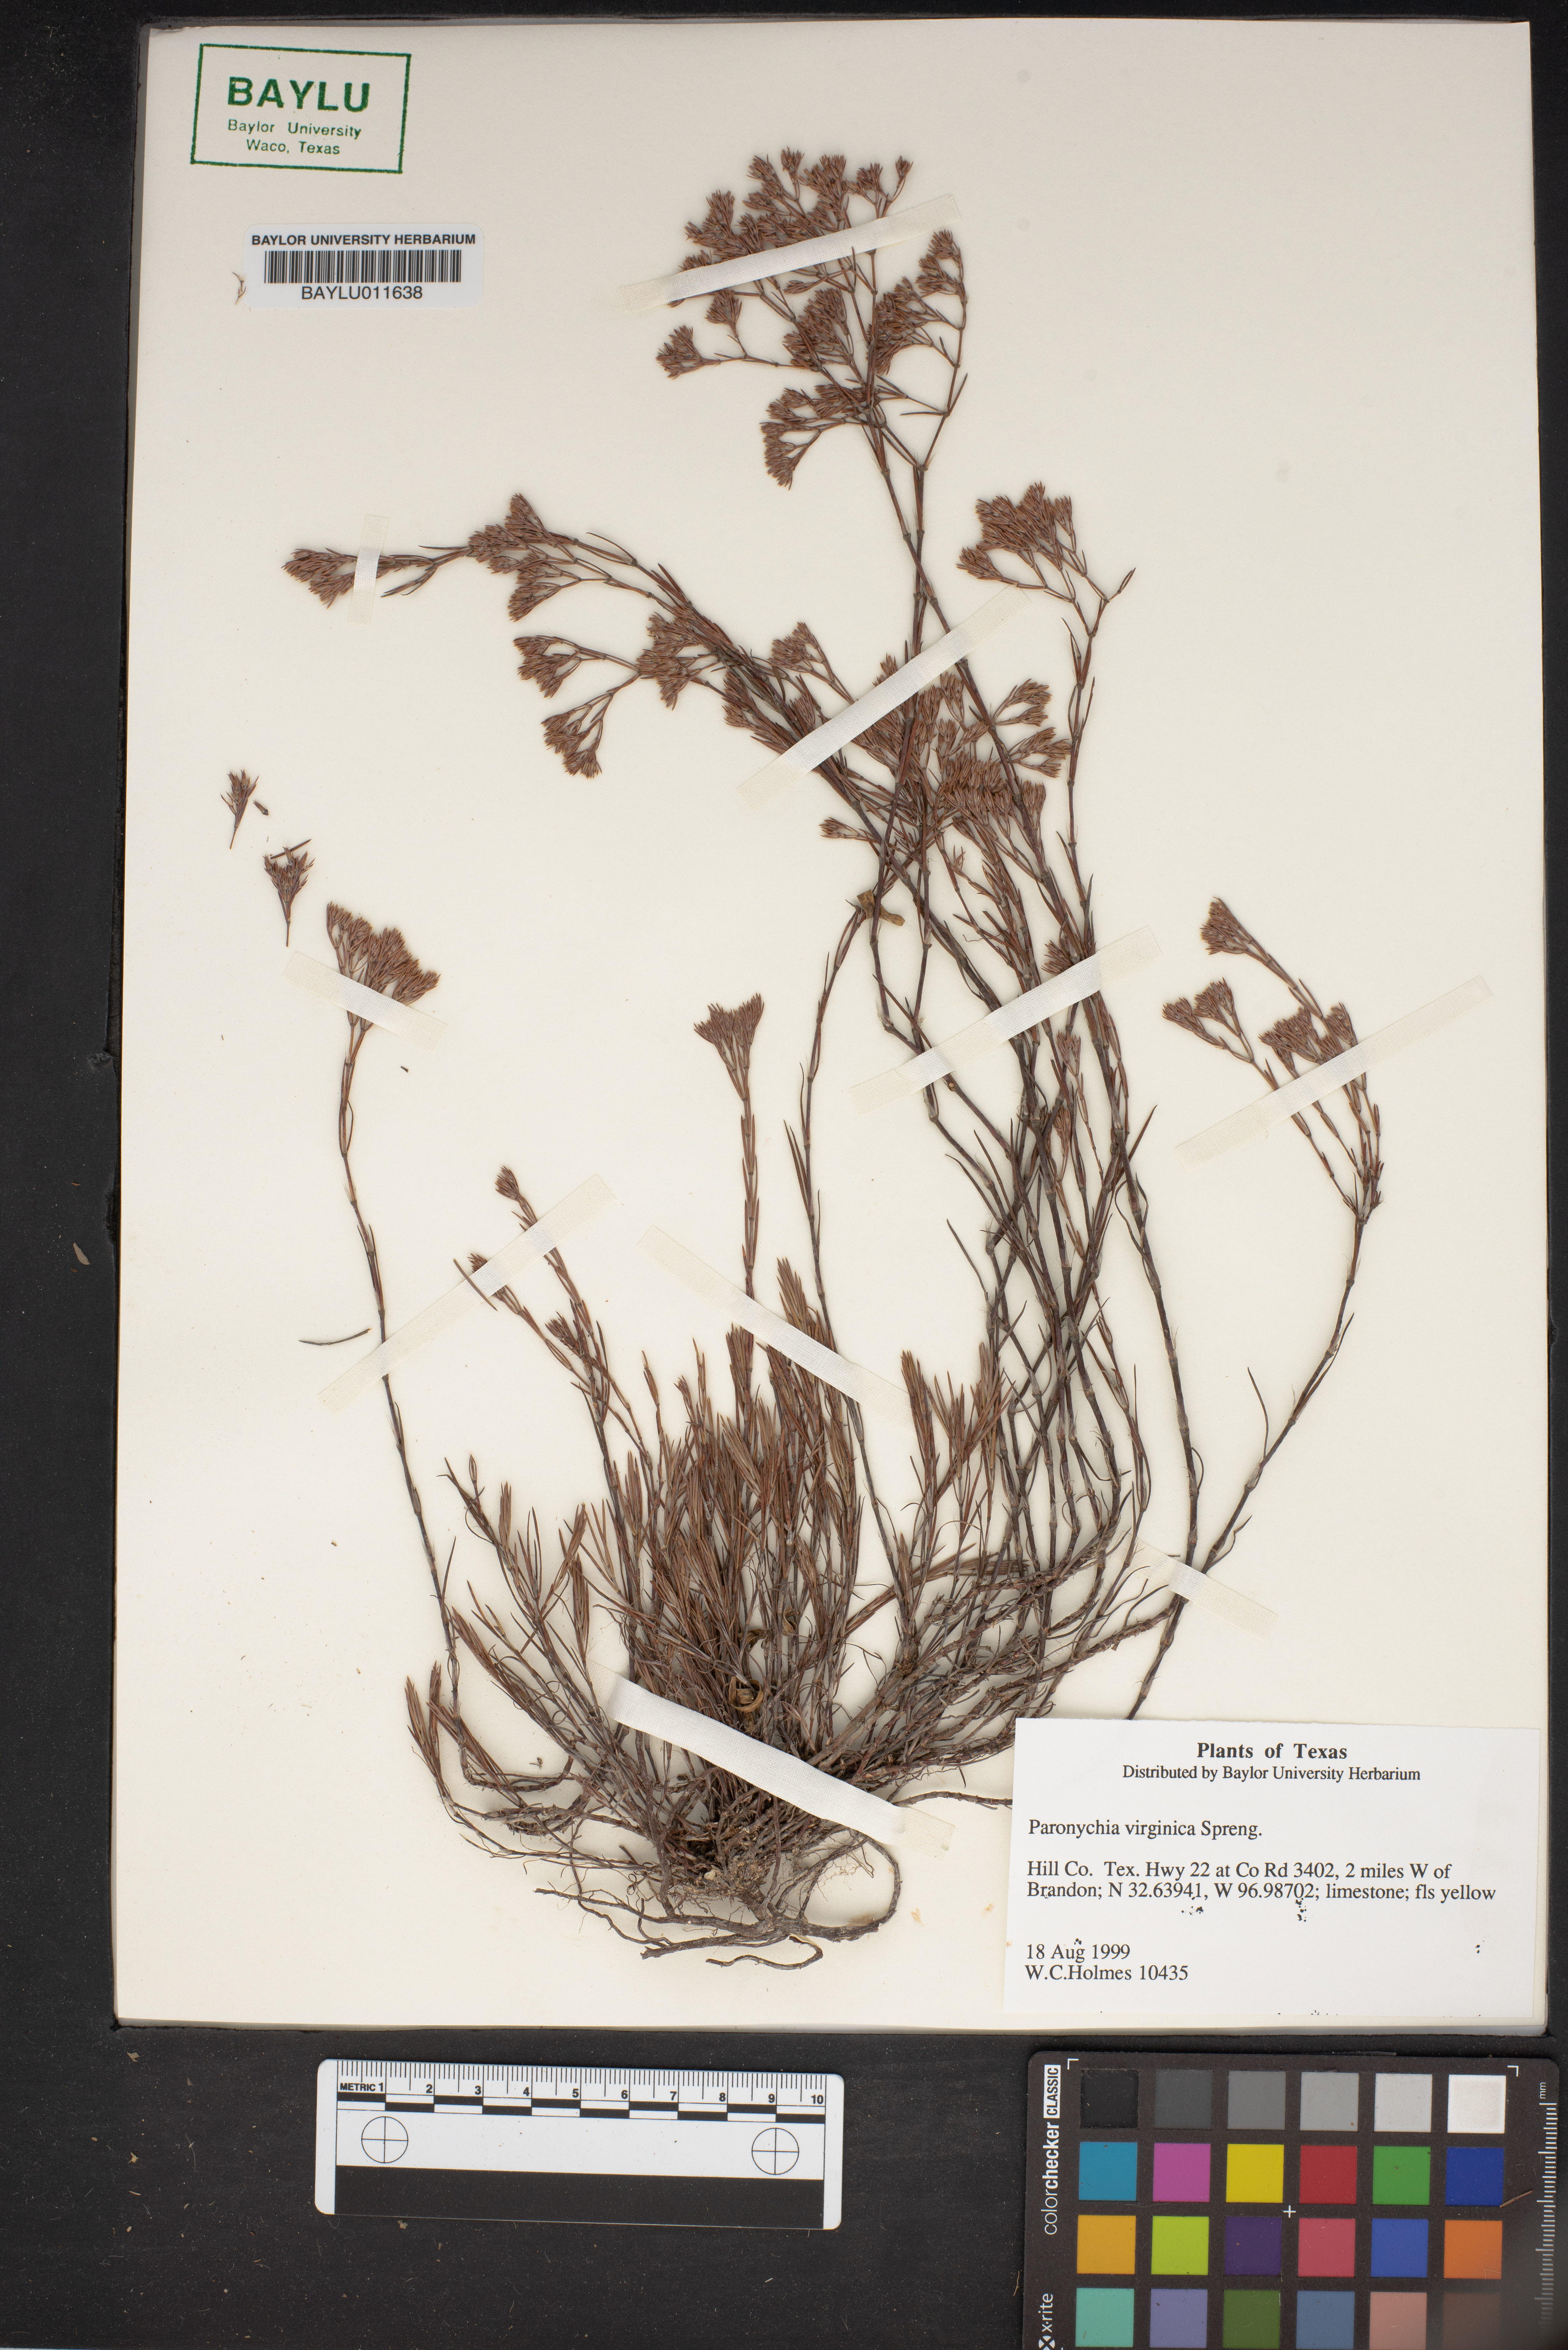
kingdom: Plantae
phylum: Tracheophyta
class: Magnoliopsida
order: Caryophyllales
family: Caryophyllaceae
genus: Paronychia
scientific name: Paronychia virginica
